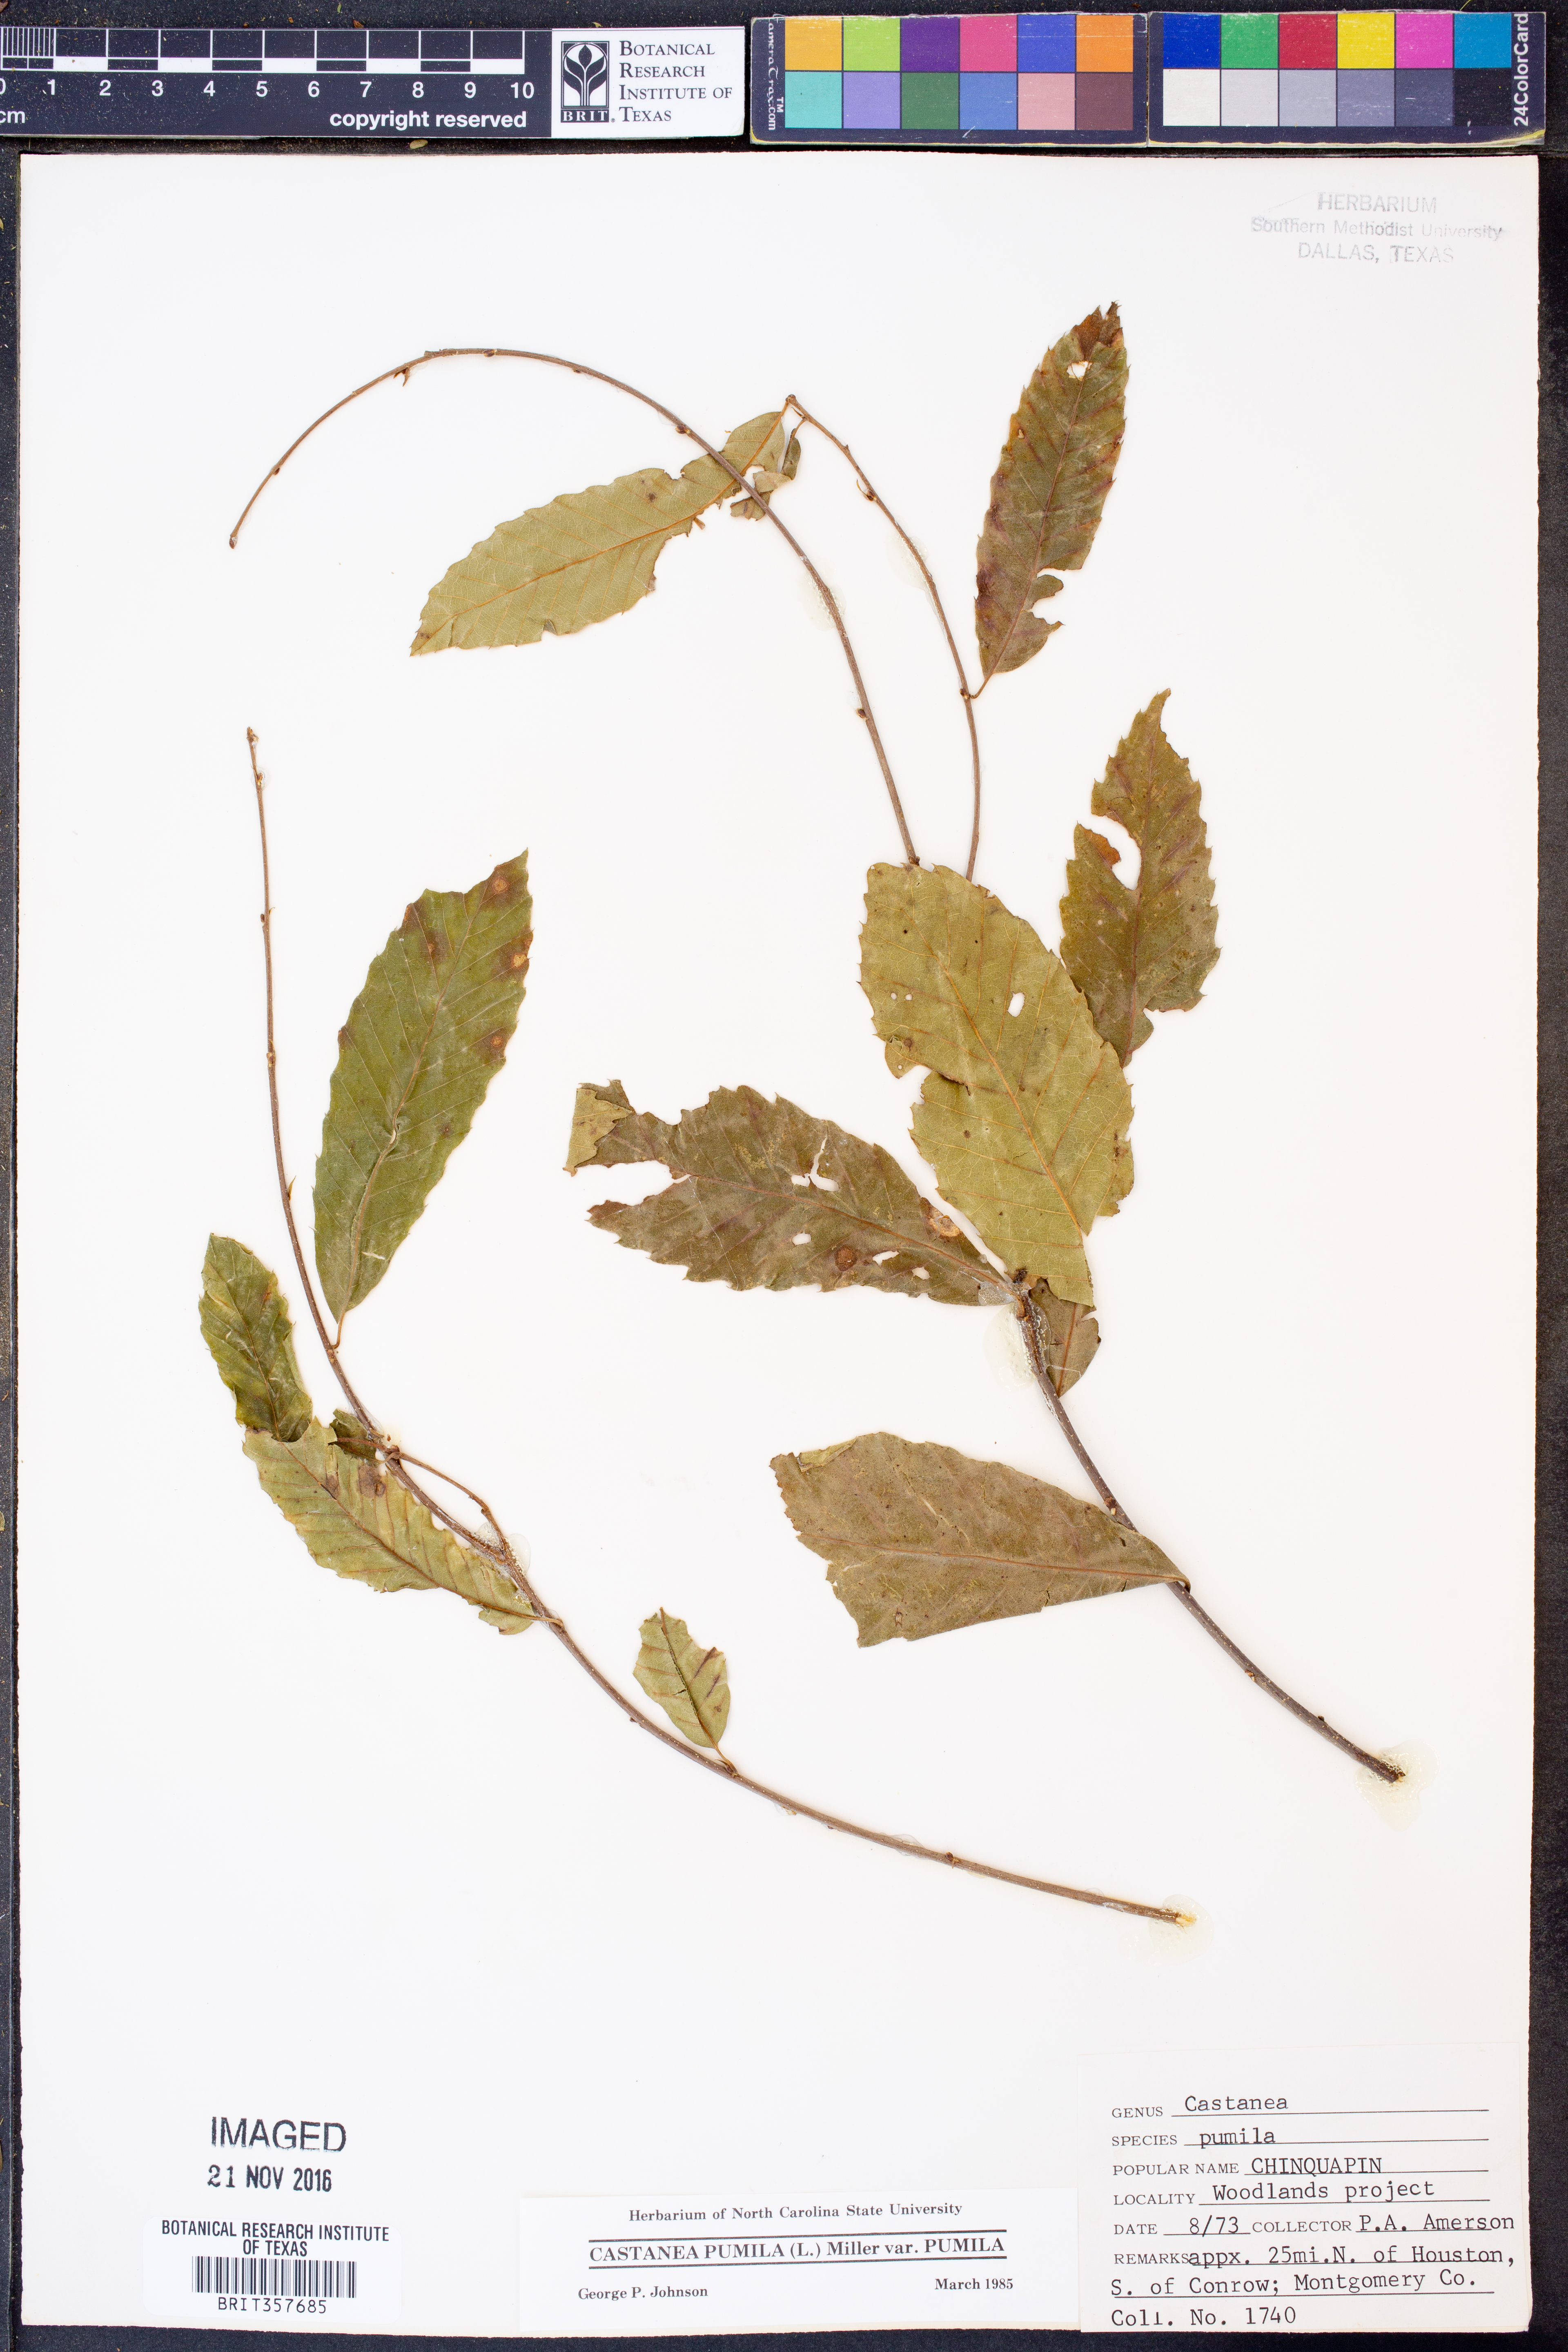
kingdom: Plantae
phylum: Tracheophyta
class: Magnoliopsida
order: Fagales
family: Fagaceae
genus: Castanea
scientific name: Castanea pumila
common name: Chinkapin
